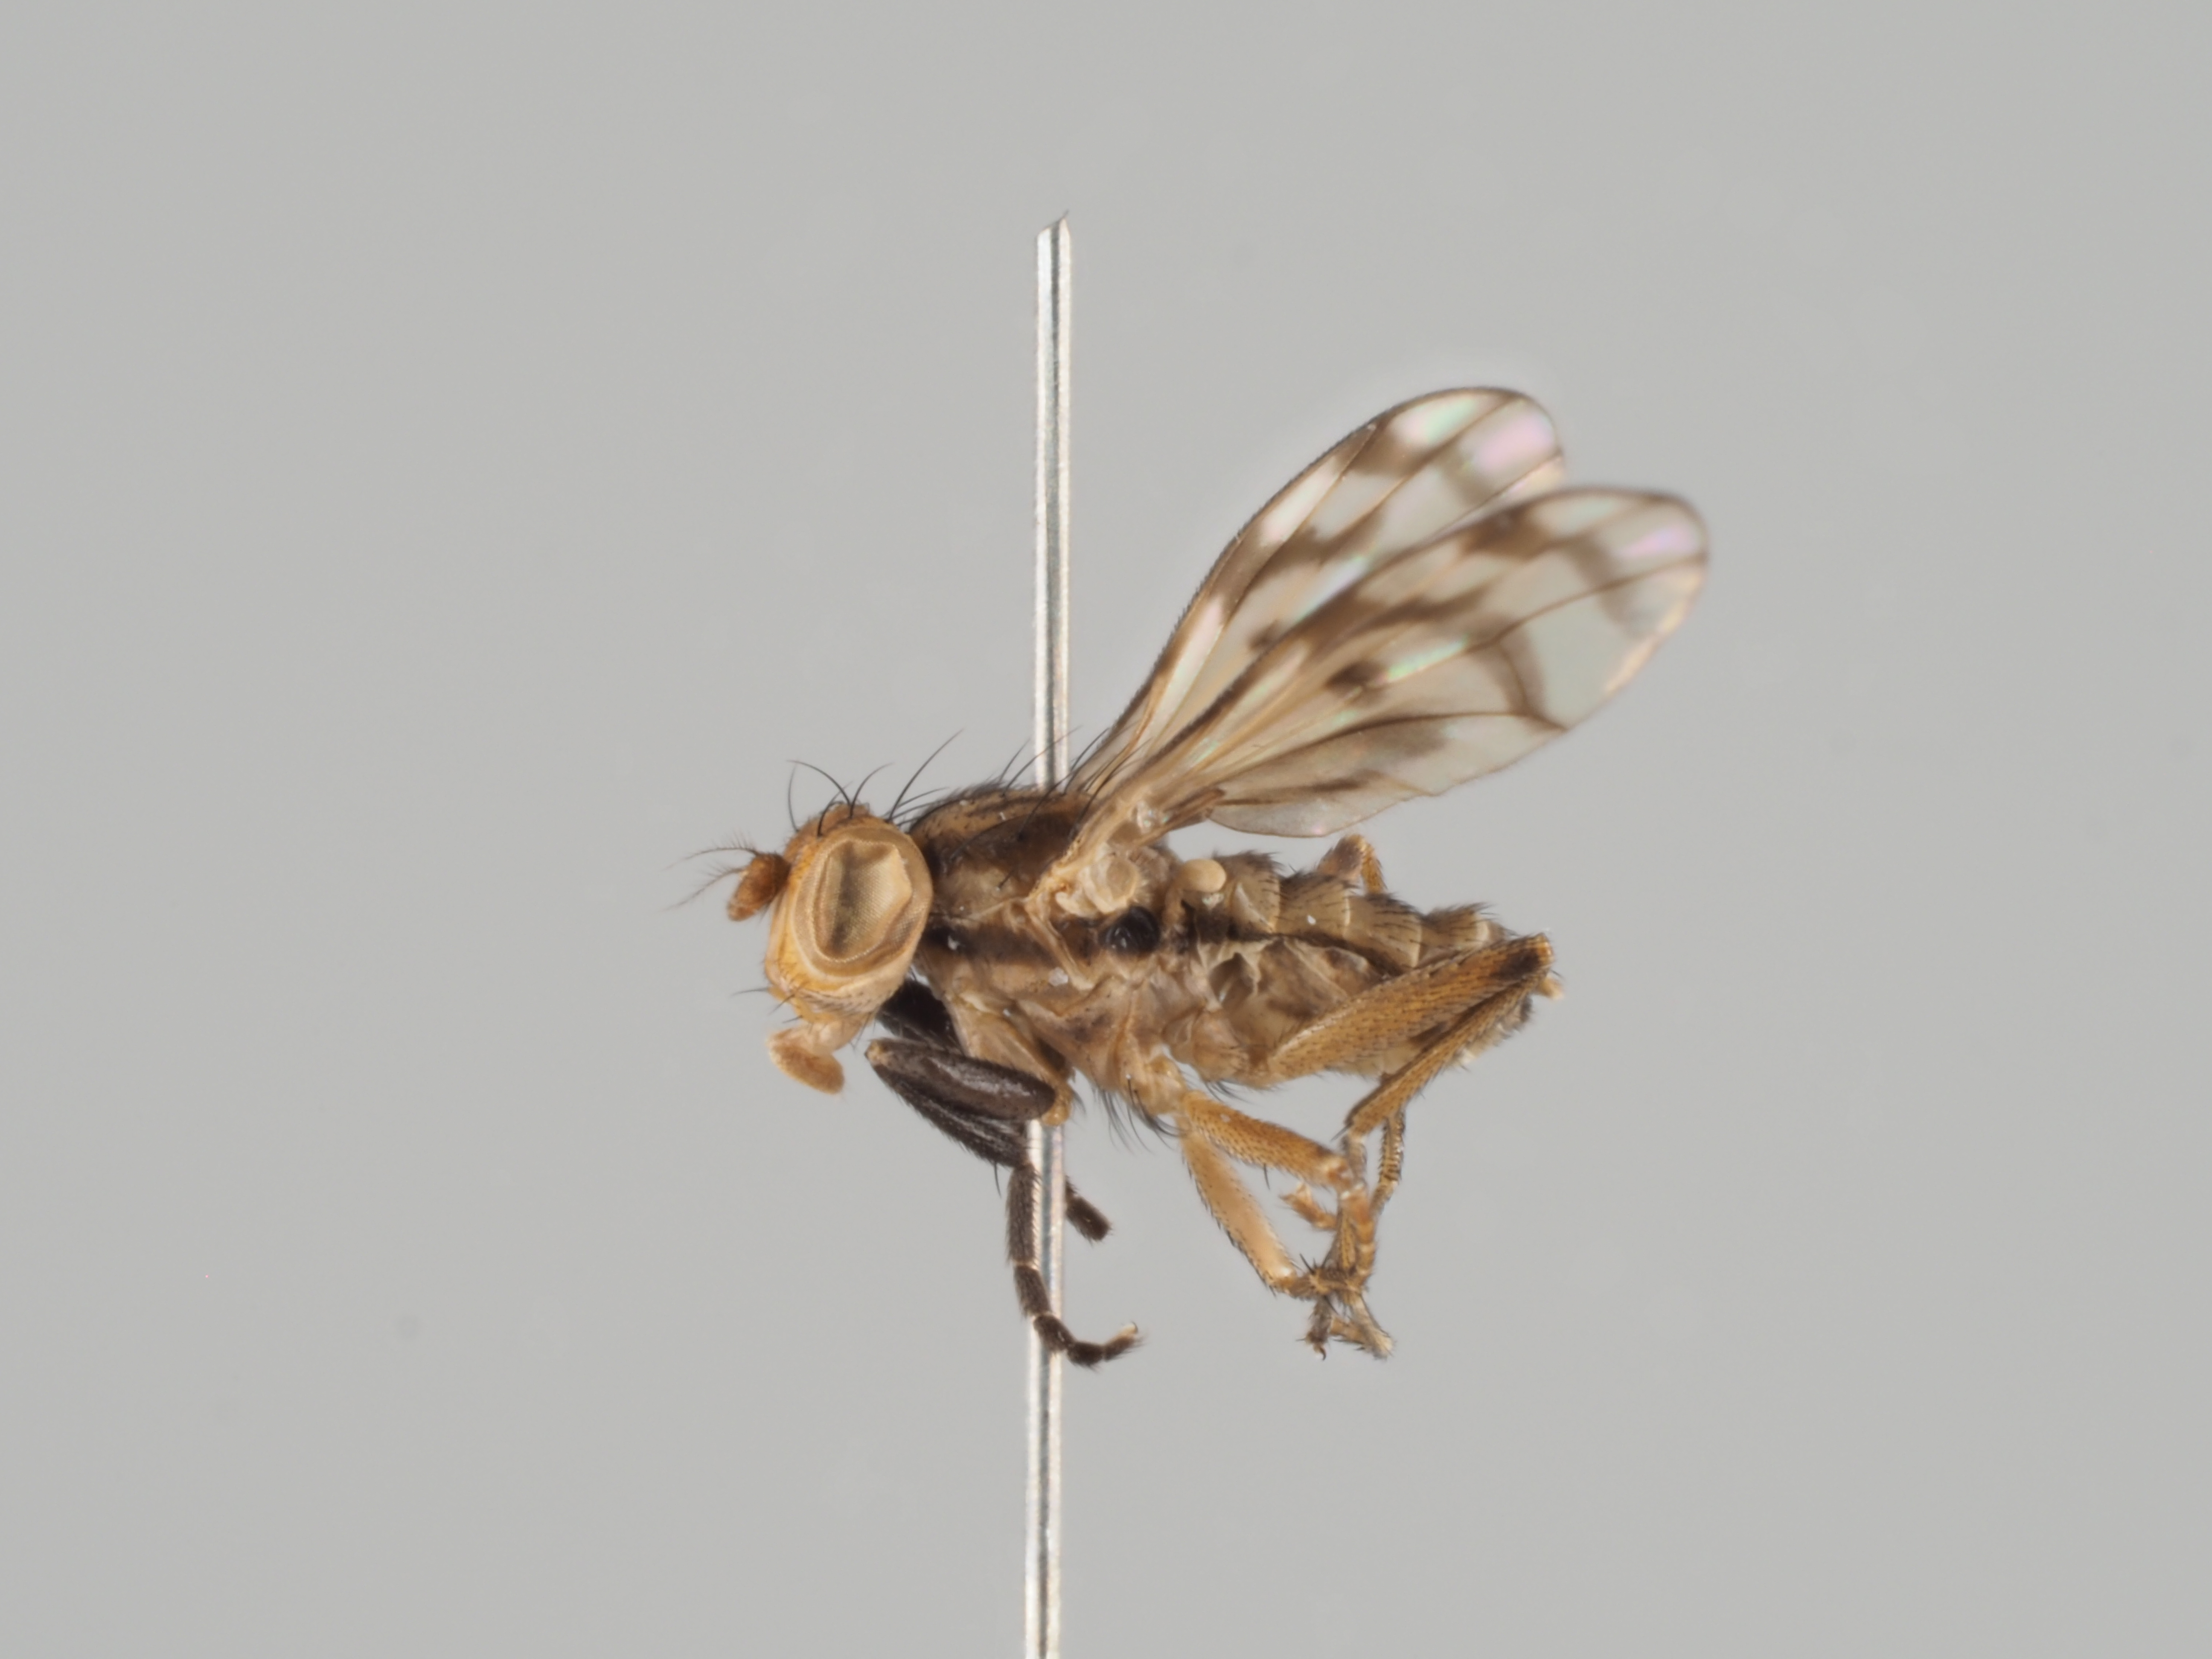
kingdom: Animalia
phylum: Arthropoda
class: Insecta
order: Diptera
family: Sciomyzidae
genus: Colobaea
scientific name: Colobaea distincta
